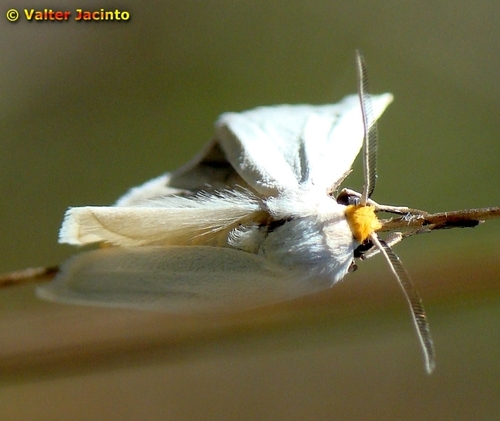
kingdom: Animalia
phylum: Arthropoda
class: Insecta
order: Lepidoptera
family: Erebidae
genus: Coscinia
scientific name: Coscinia cribraria
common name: Speckled footman
